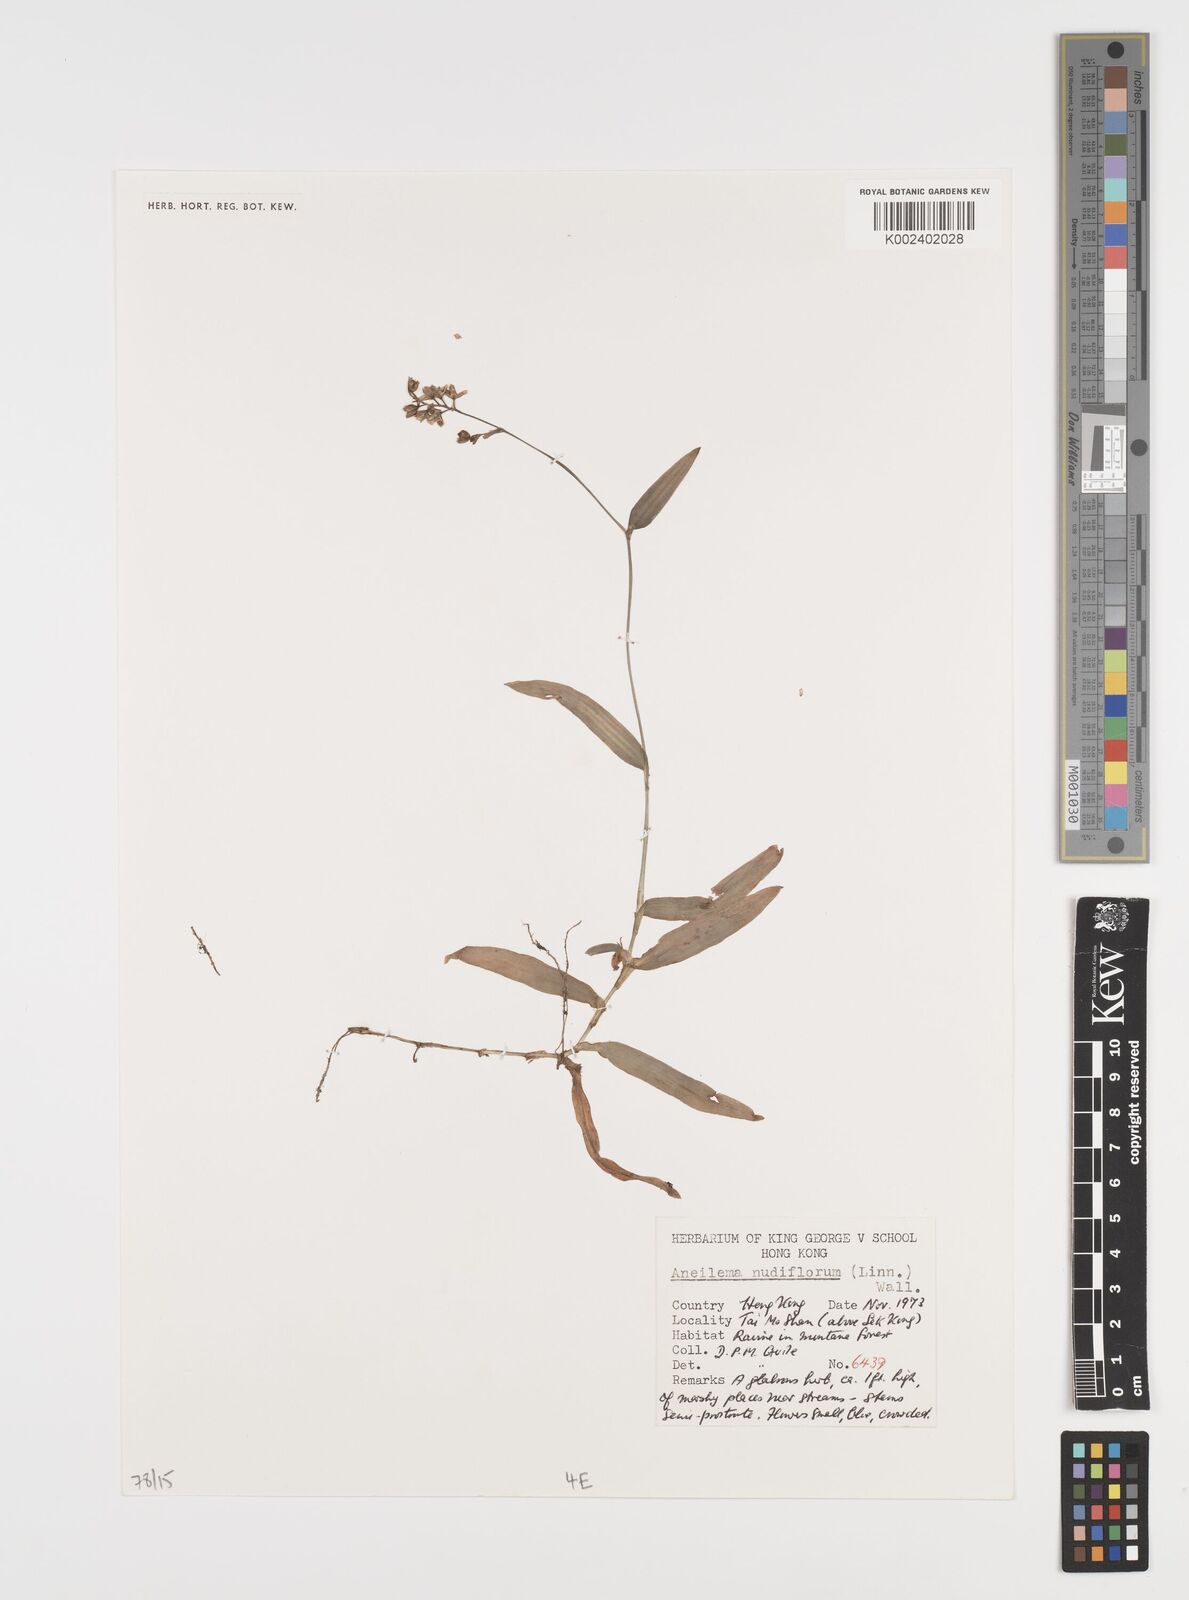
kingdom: Plantae
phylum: Tracheophyta
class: Liliopsida
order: Commelinales
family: Commelinaceae
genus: Murdannia
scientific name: Murdannia nudiflora
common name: Nakedstem dewflower
